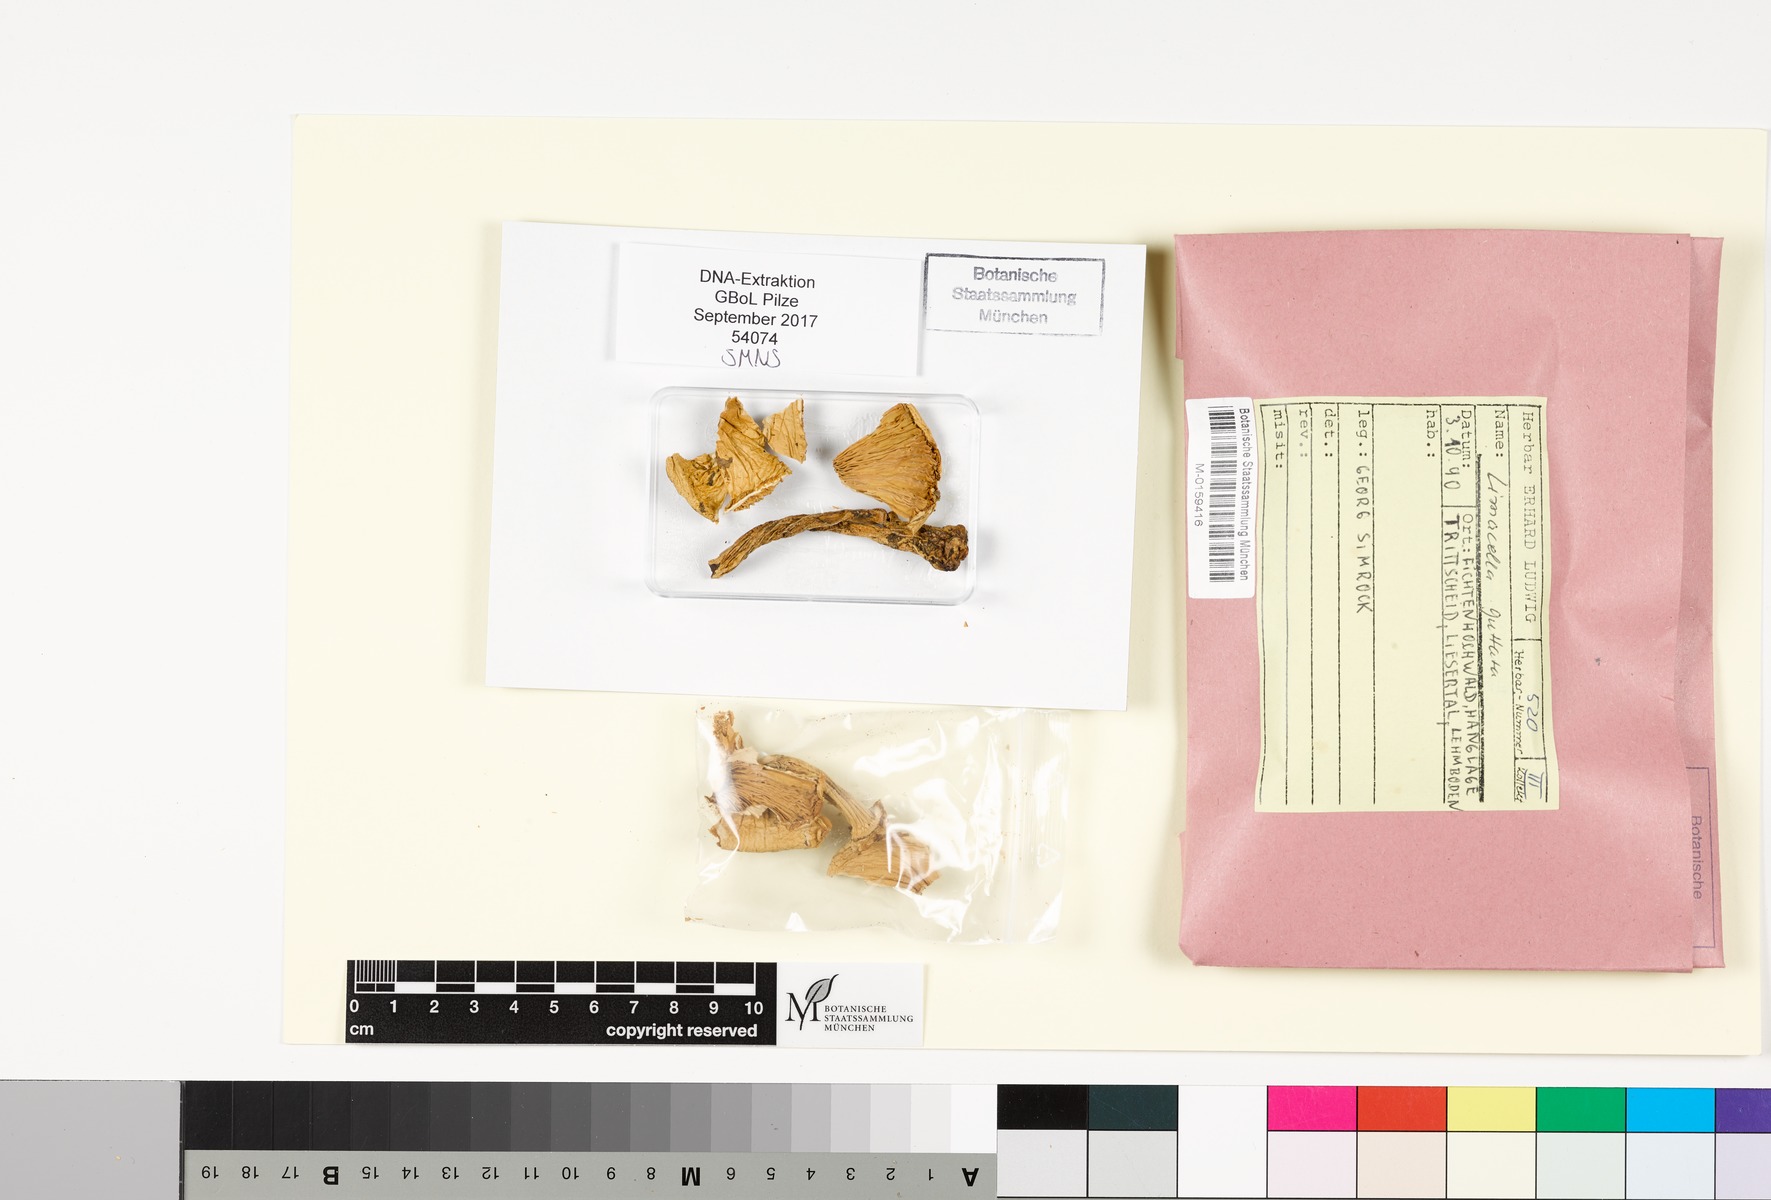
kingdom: Fungi
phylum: Basidiomycota
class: Agaricomycetes
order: Agaricales
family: Amanitaceae
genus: Limacellopsis
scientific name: Limacellopsis guttata
